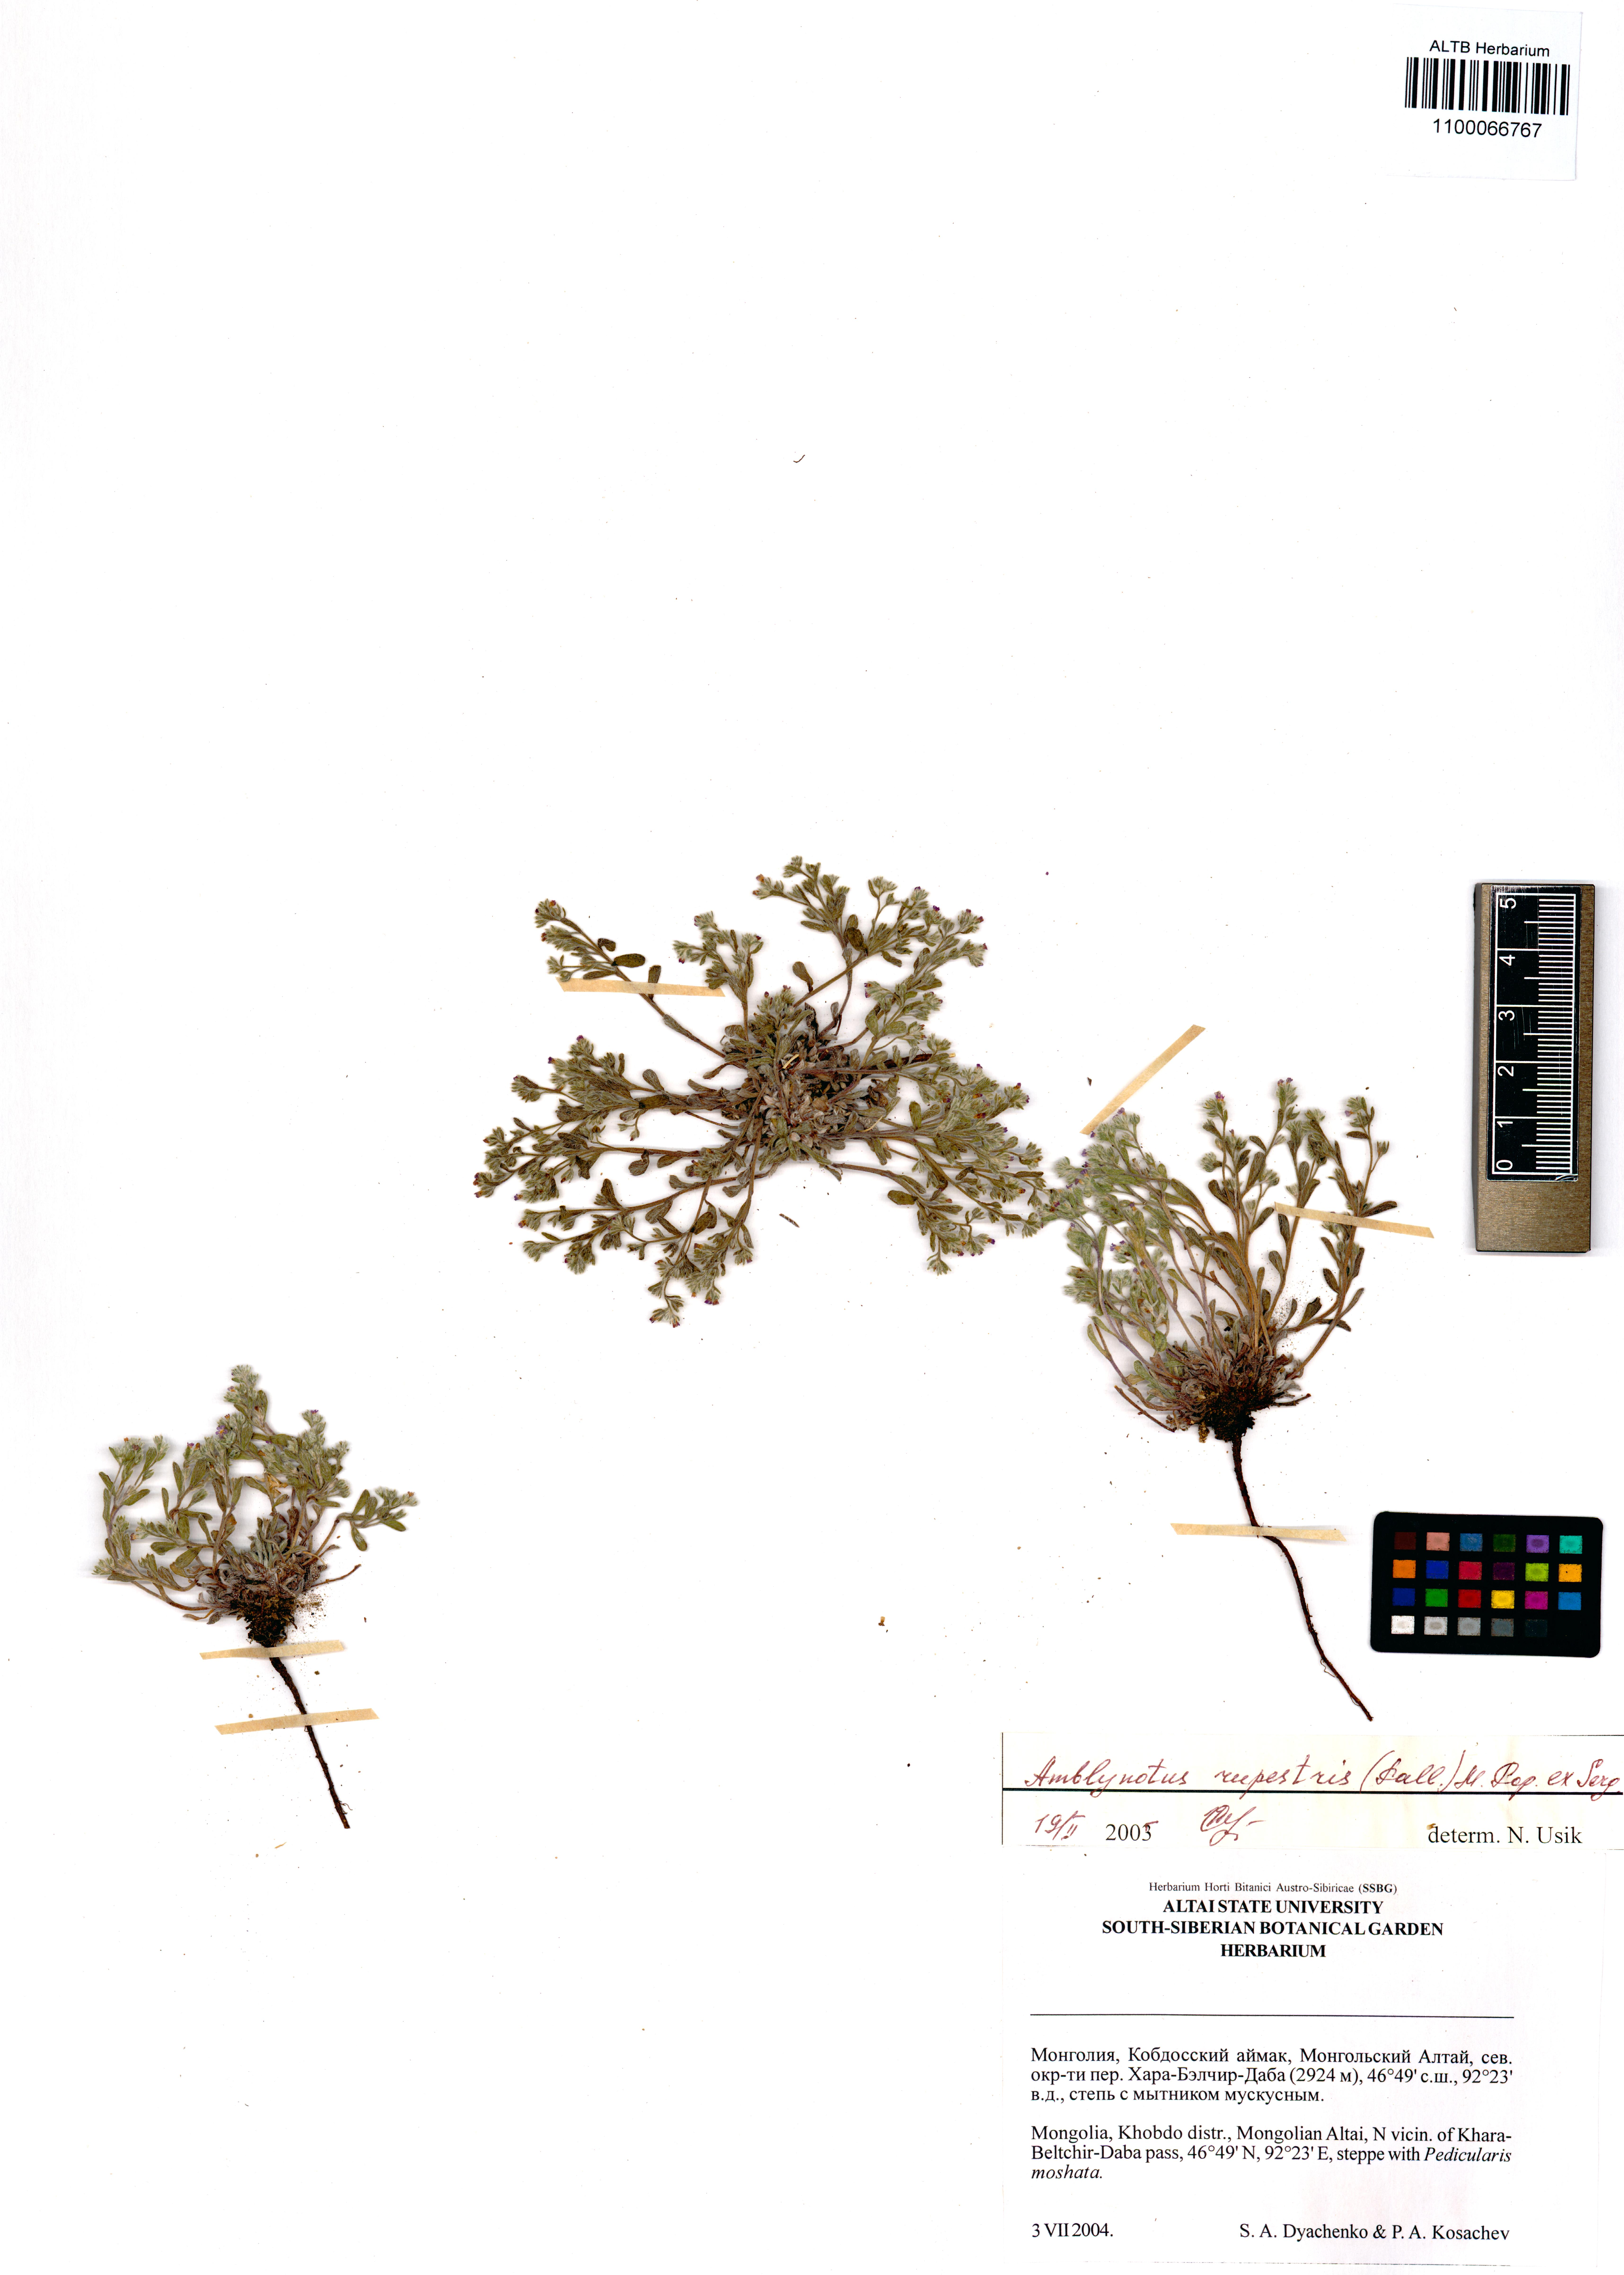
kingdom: Plantae
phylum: Tracheophyta
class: Magnoliopsida
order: Boraginales
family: Boraginaceae
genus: Eritrichium
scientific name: Eritrichium rupestre
